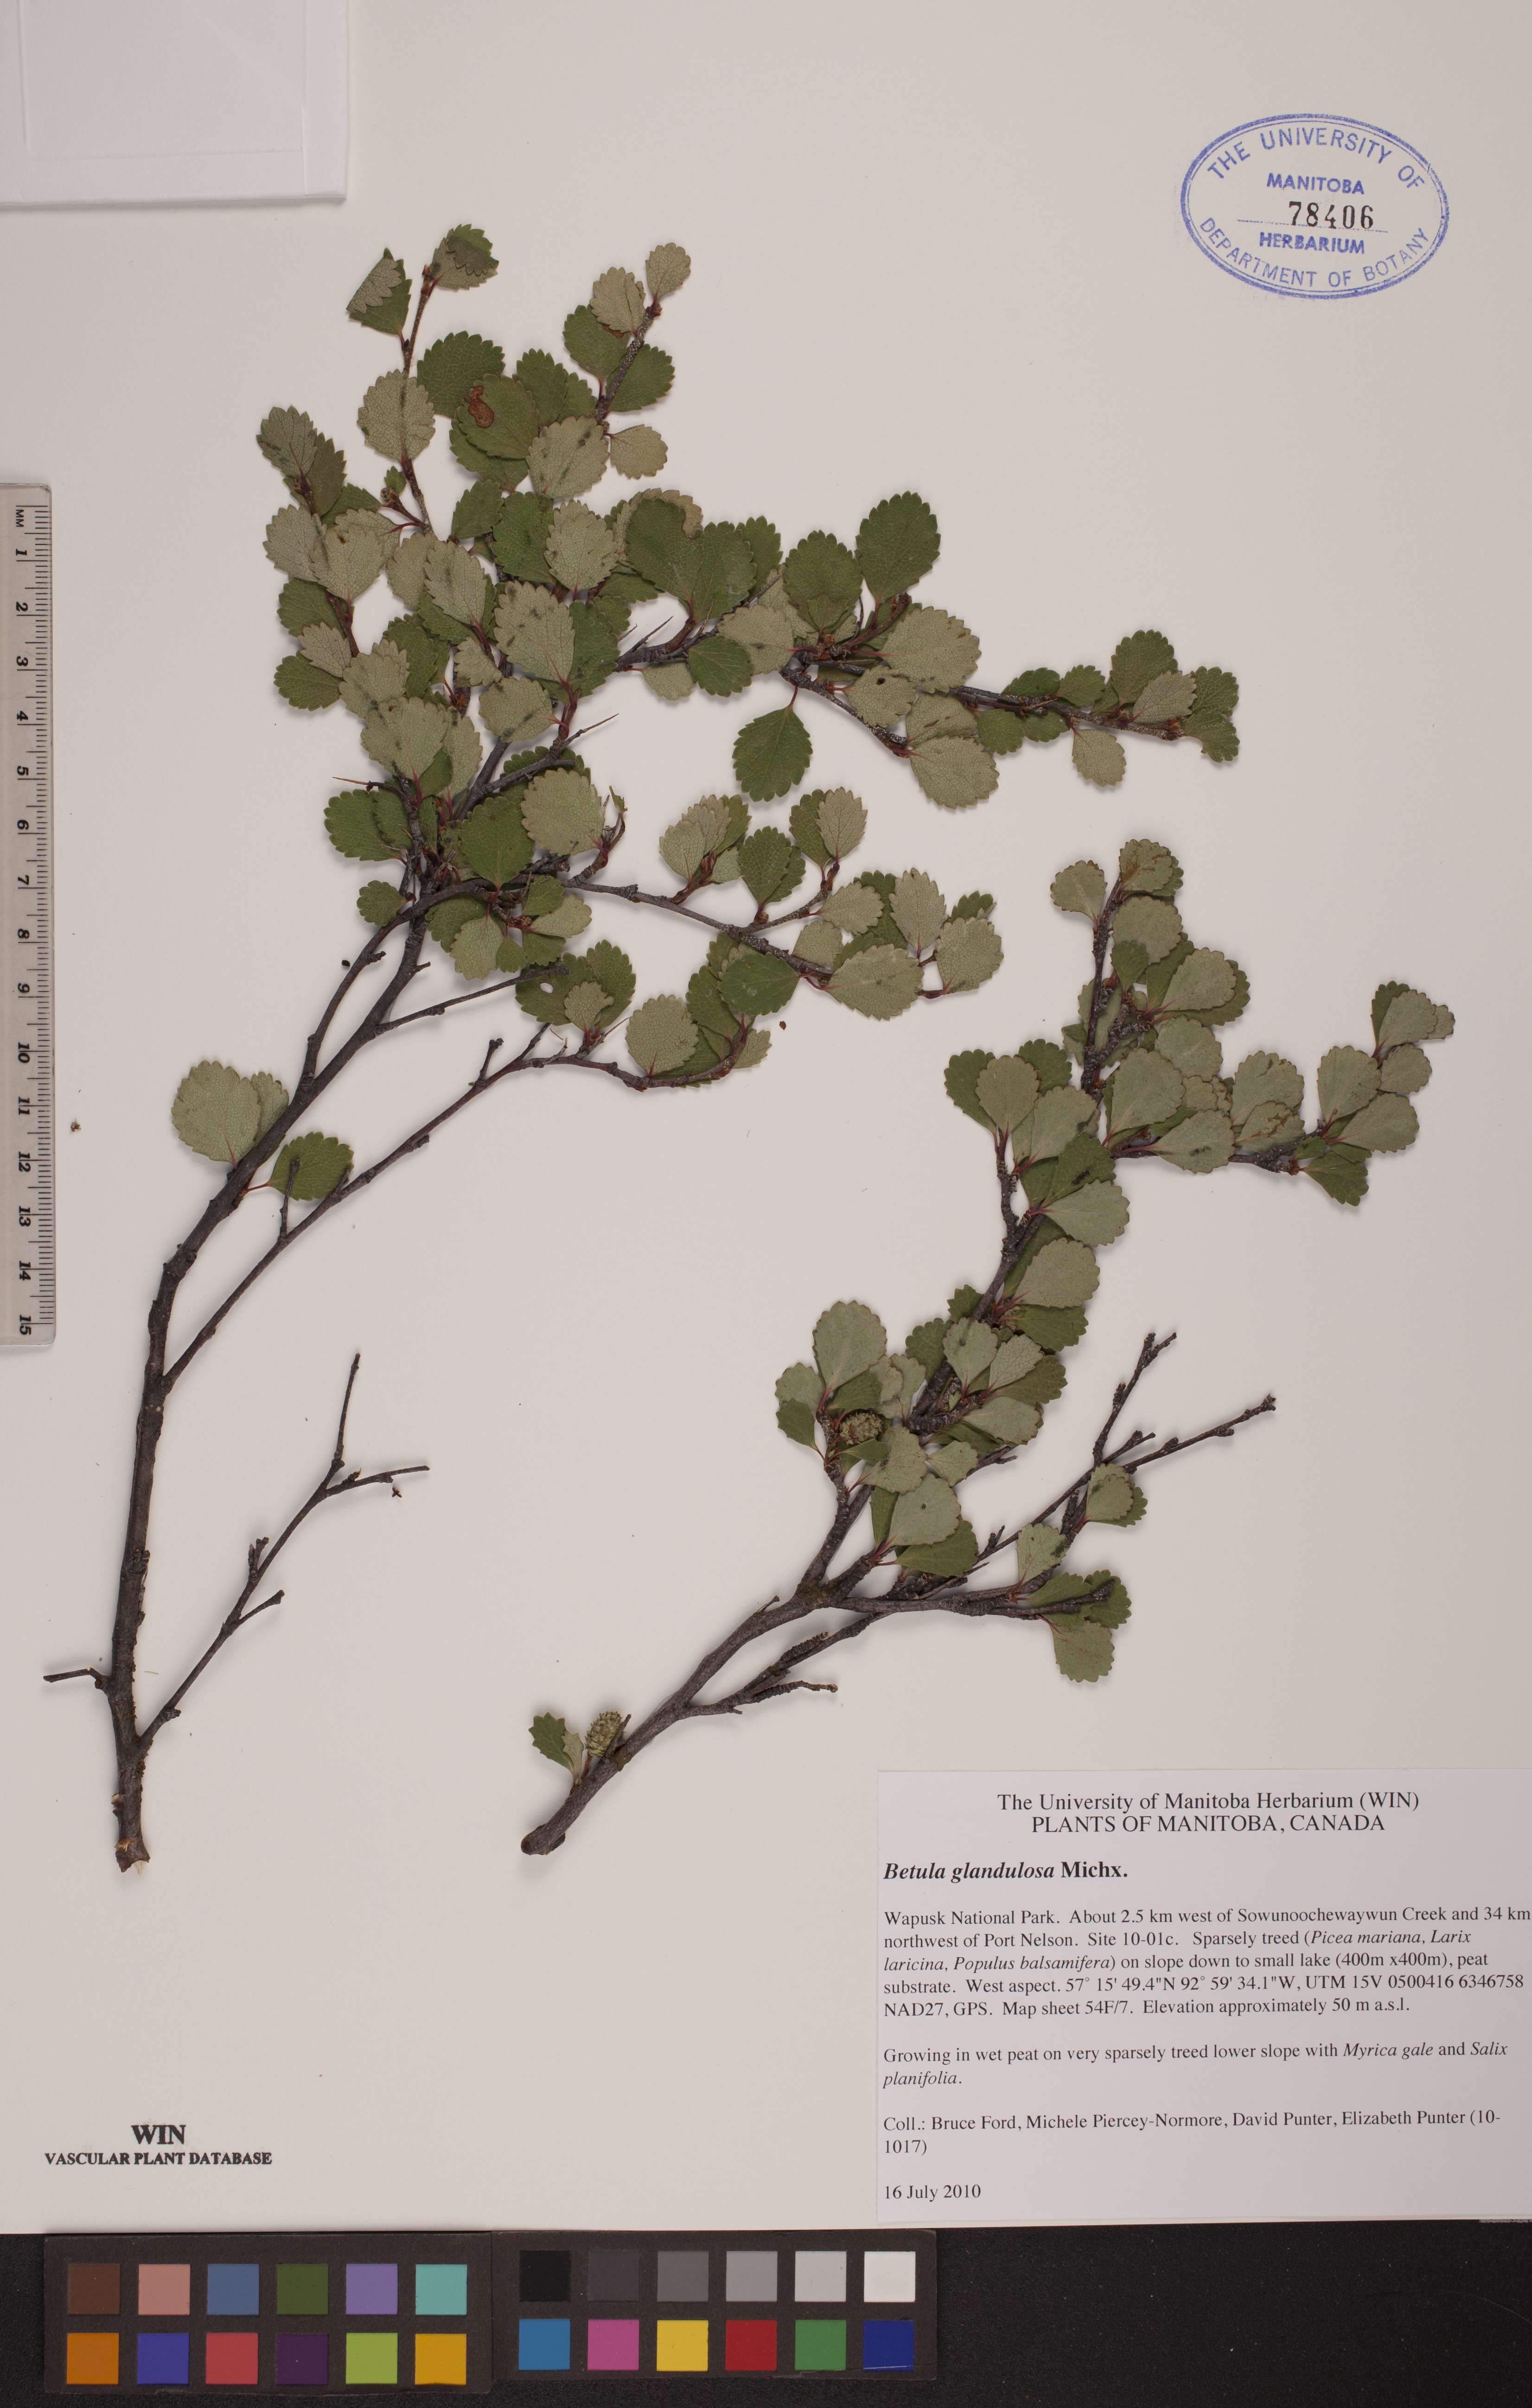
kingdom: Plantae
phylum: Tracheophyta
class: Magnoliopsida
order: Fagales
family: Betulaceae
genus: Betula
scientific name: Betula glandulosa
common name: Dwarf birch
